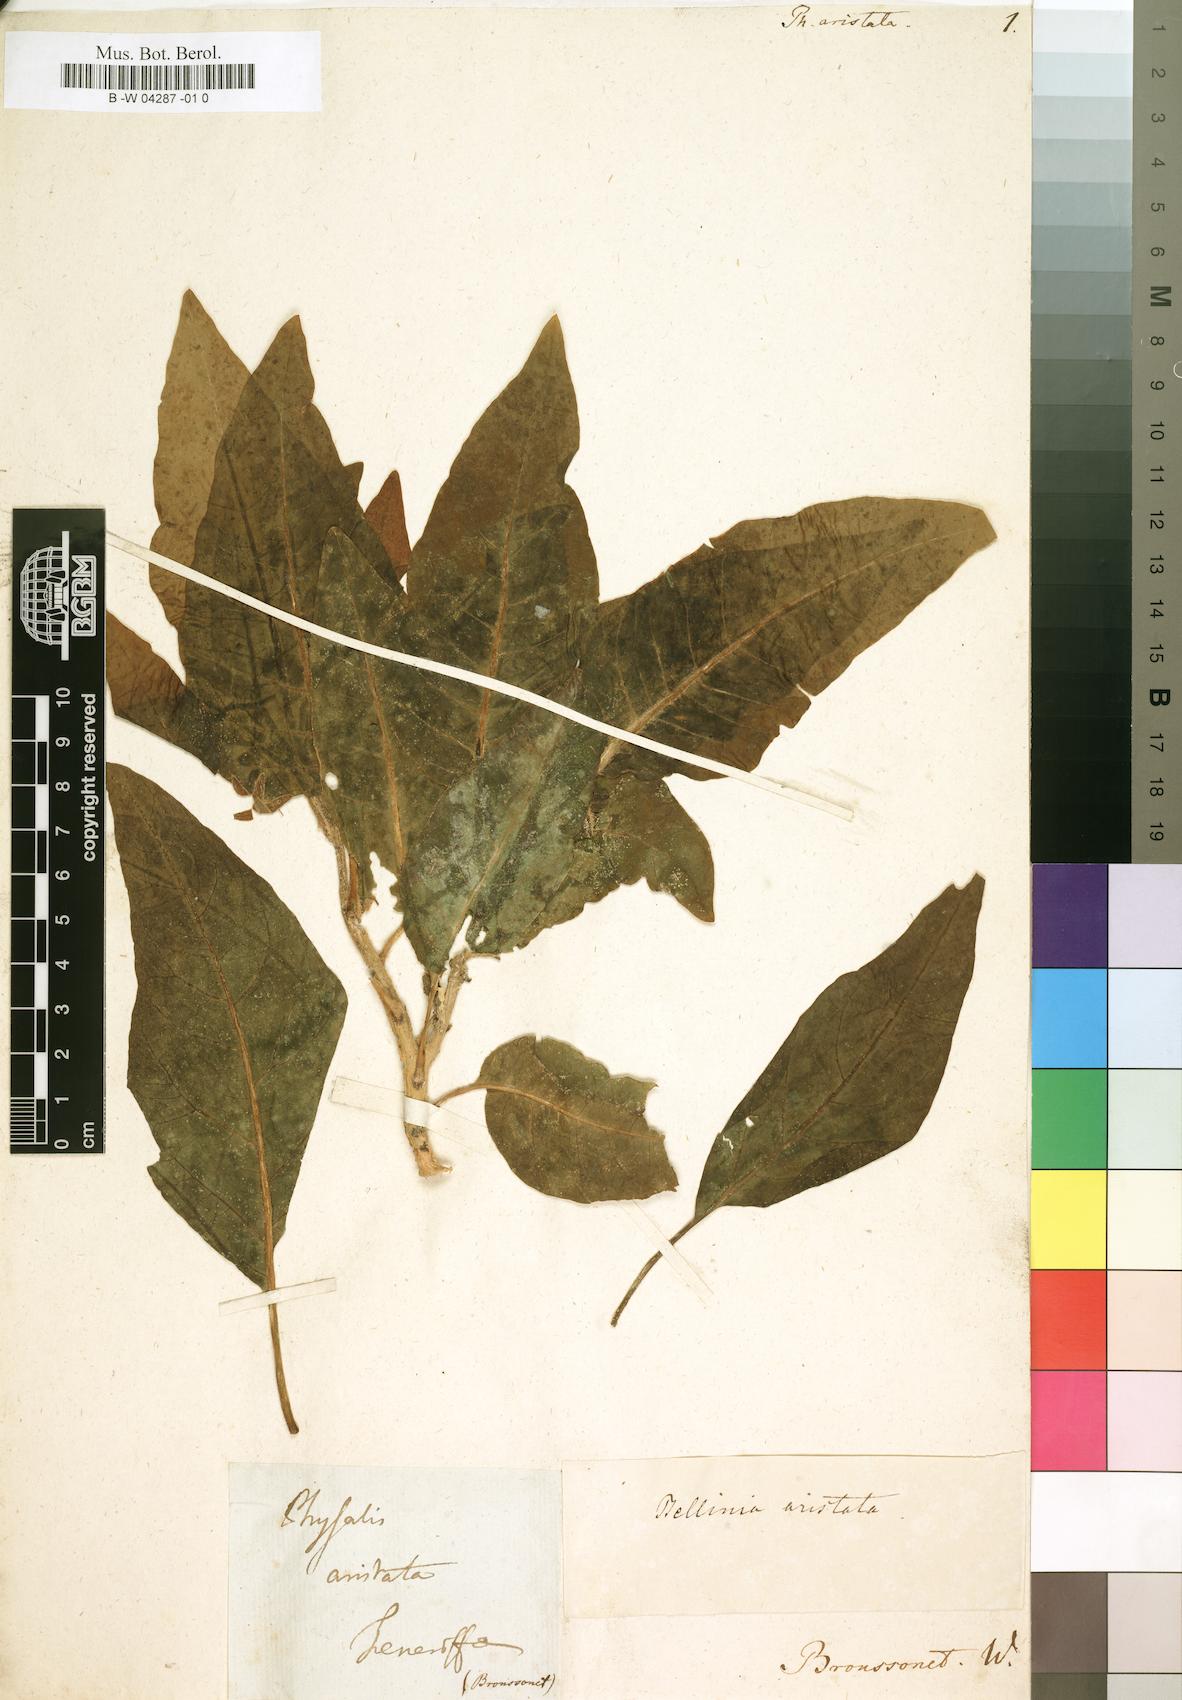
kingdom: Plantae
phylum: Tracheophyta
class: Magnoliopsida
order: Solanales
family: Solanaceae
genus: Withania
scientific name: Withania aristata
